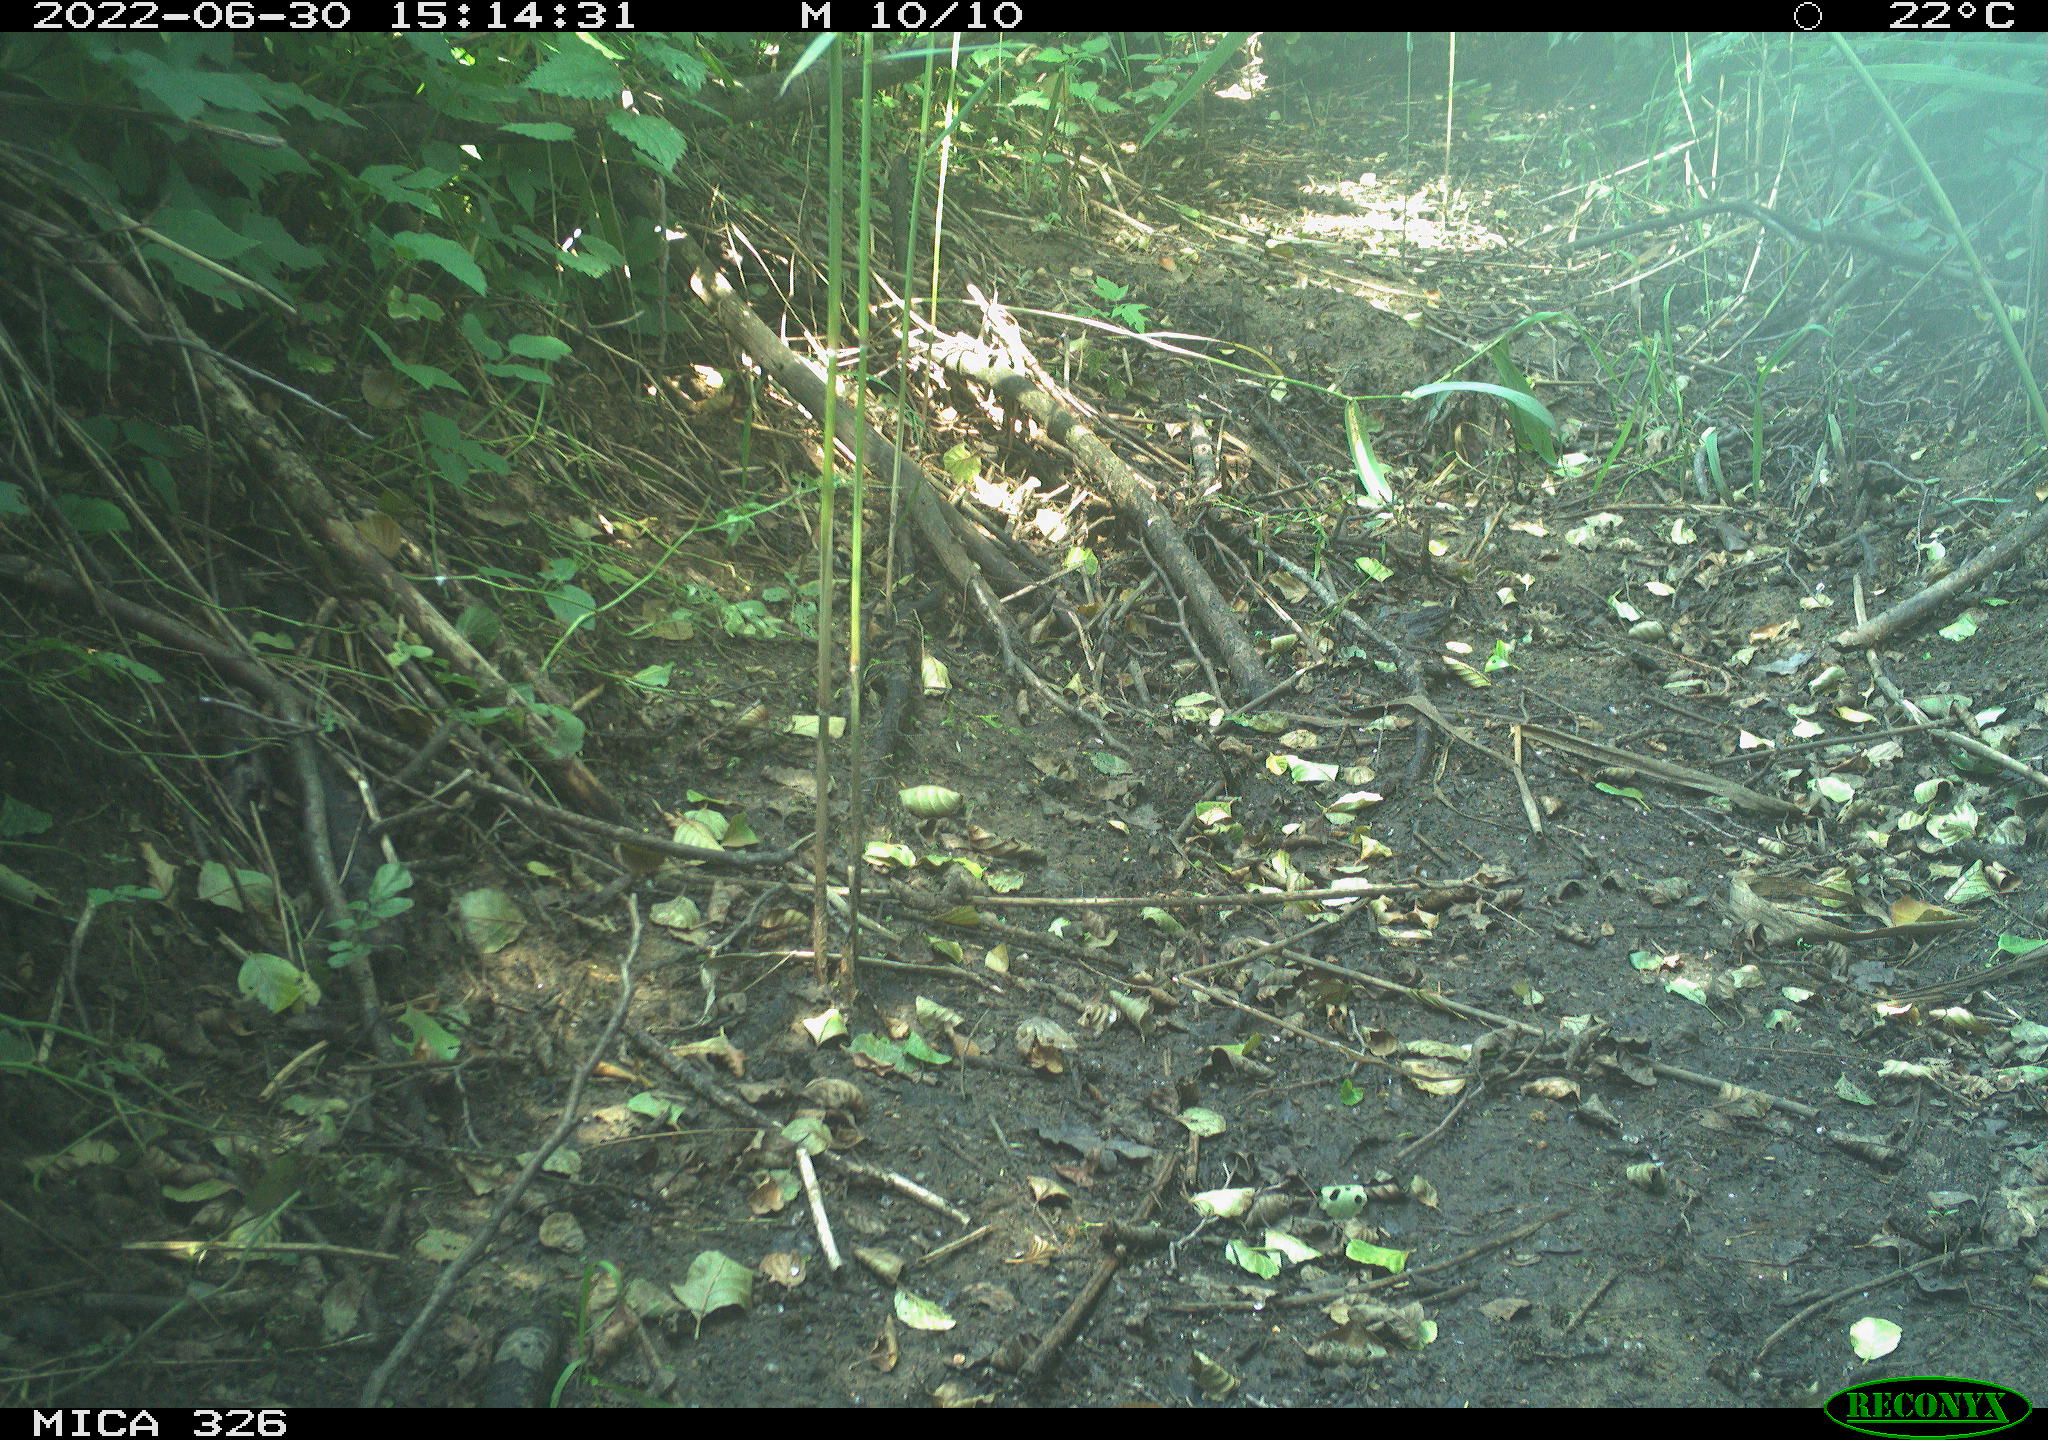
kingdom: Animalia
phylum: Chordata
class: Aves
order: Passeriformes
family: Turdidae
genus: Turdus
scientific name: Turdus
